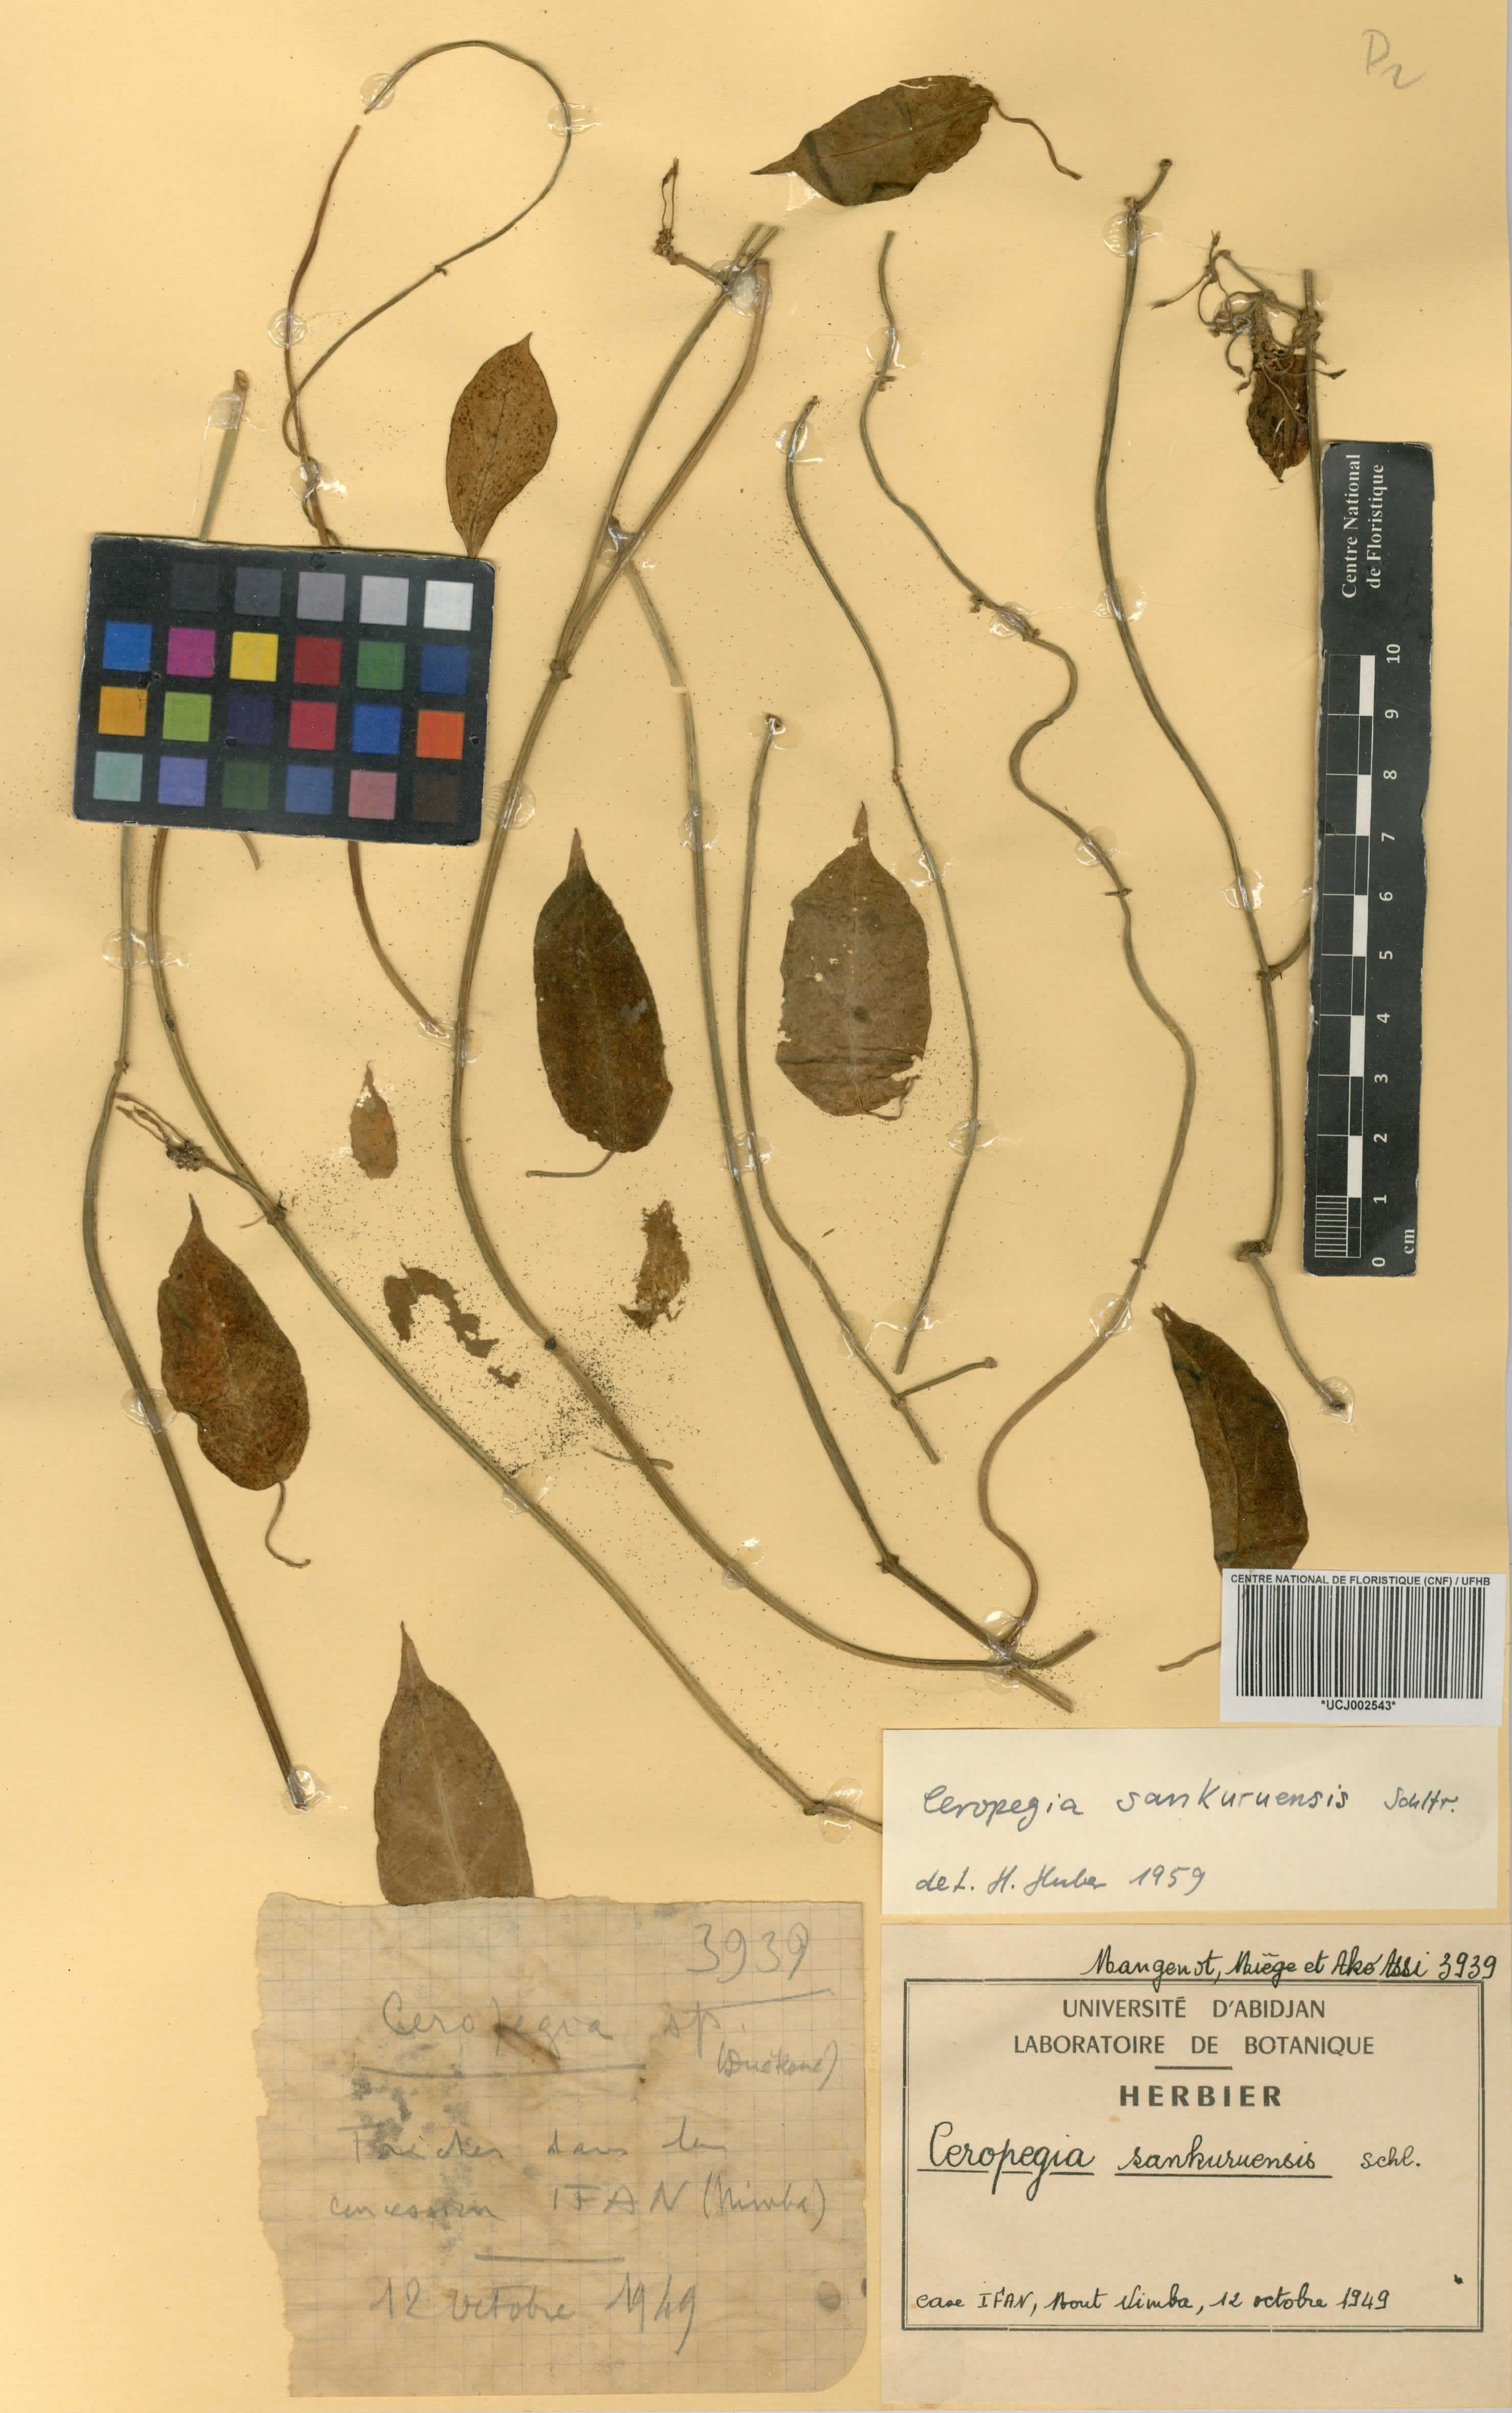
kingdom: Plantae
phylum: Tracheophyta
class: Magnoliopsida
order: Gentianales
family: Apocynaceae
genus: Ceropegia
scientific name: Ceropegia sankuruensis
